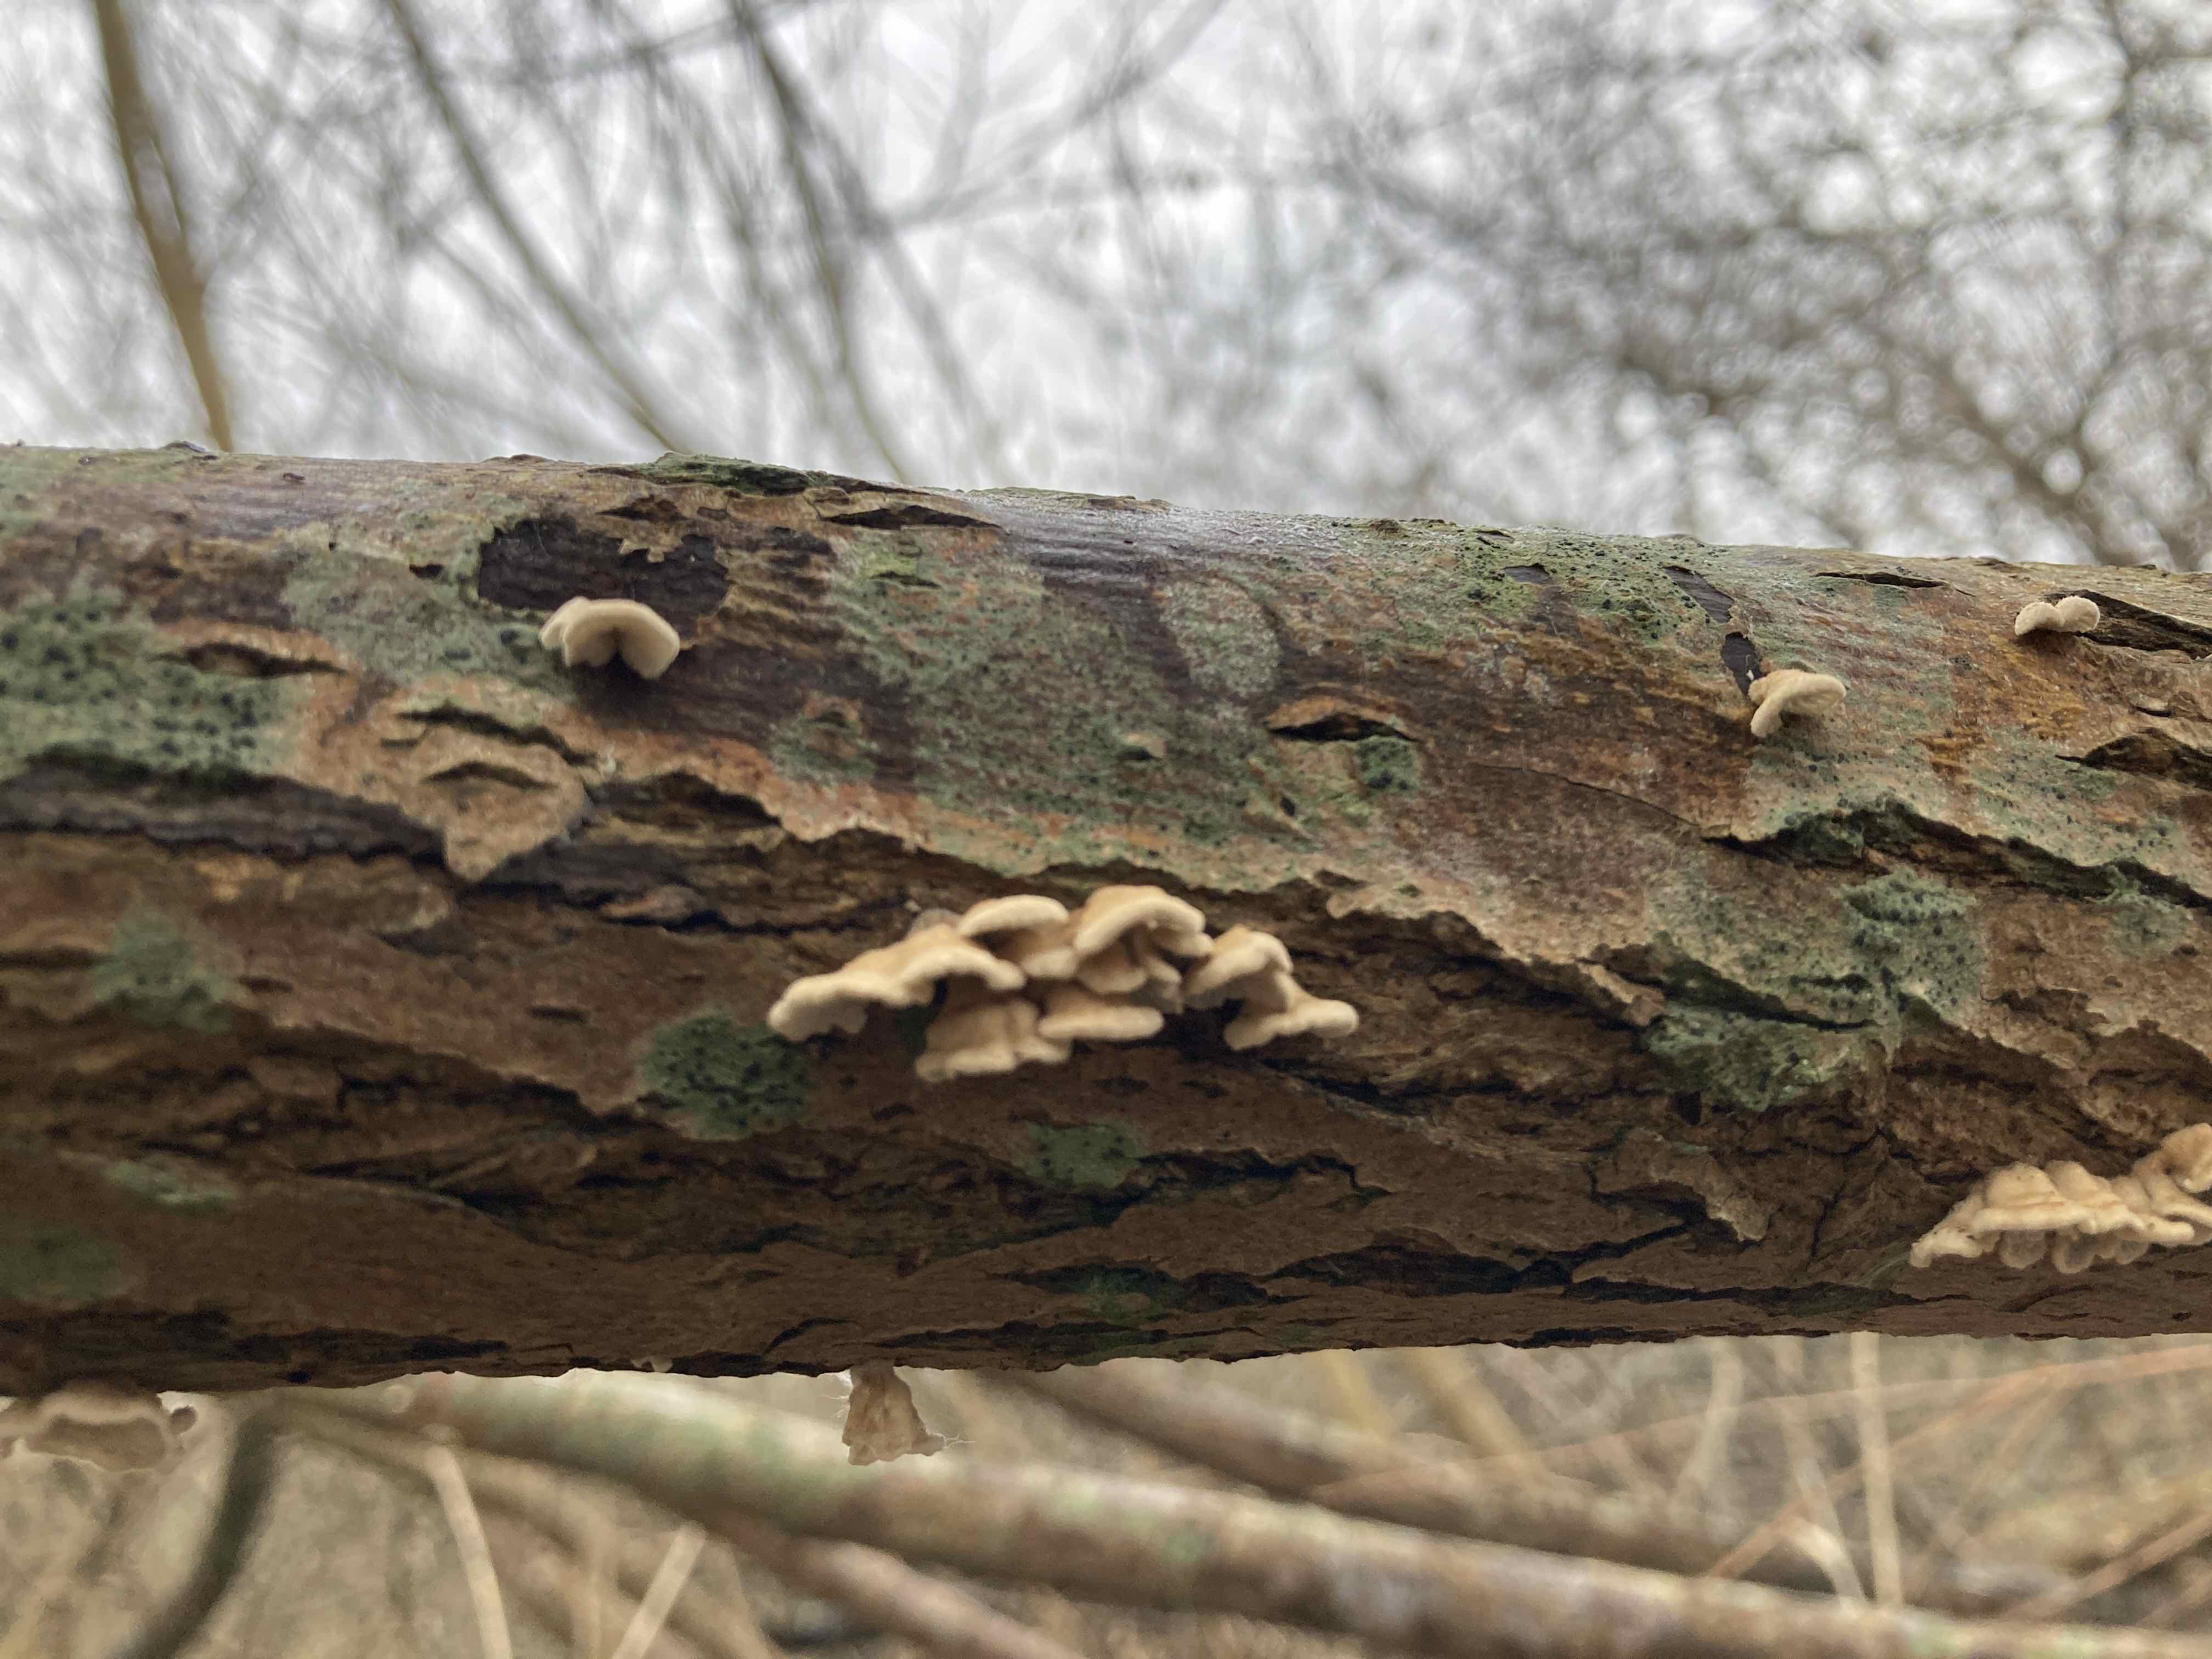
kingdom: Fungi
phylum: Basidiomycota
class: Agaricomycetes
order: Amylocorticiales
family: Amylocorticiaceae
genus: Plicaturopsis
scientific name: Plicaturopsis crispa
